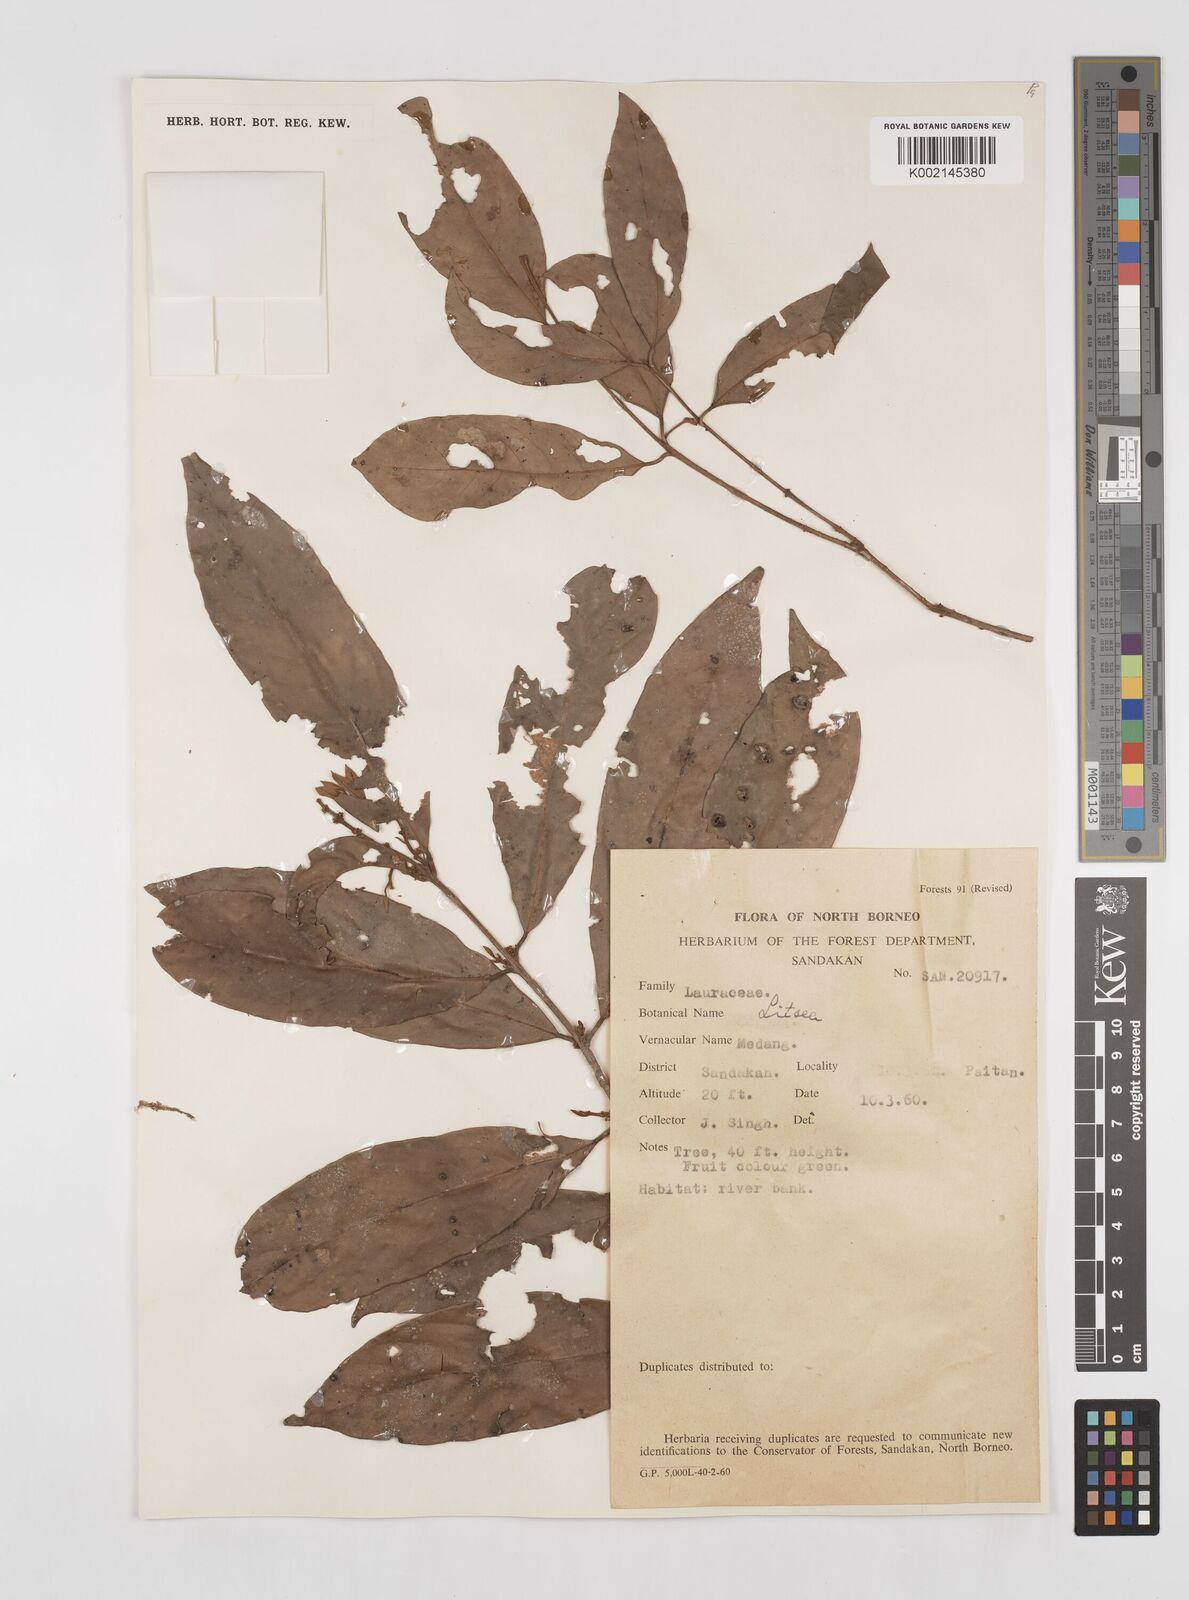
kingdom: Plantae
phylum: Tracheophyta
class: Magnoliopsida
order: Laurales
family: Lauraceae
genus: Litsea
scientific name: Litsea
